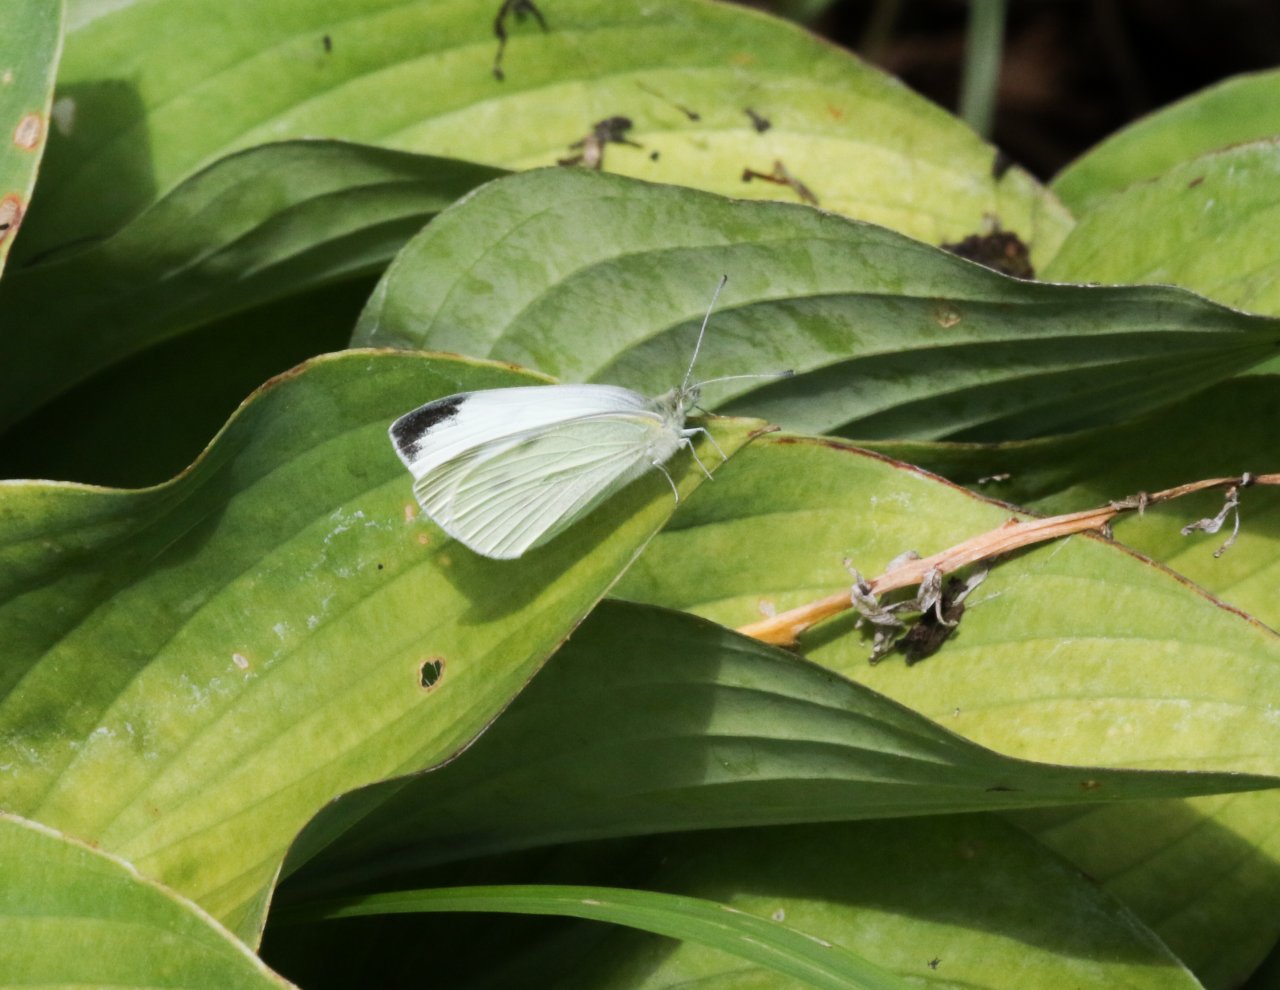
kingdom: Animalia
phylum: Arthropoda
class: Insecta
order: Lepidoptera
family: Pieridae
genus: Pieris
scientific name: Pieris rapae
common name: Cabbage White
